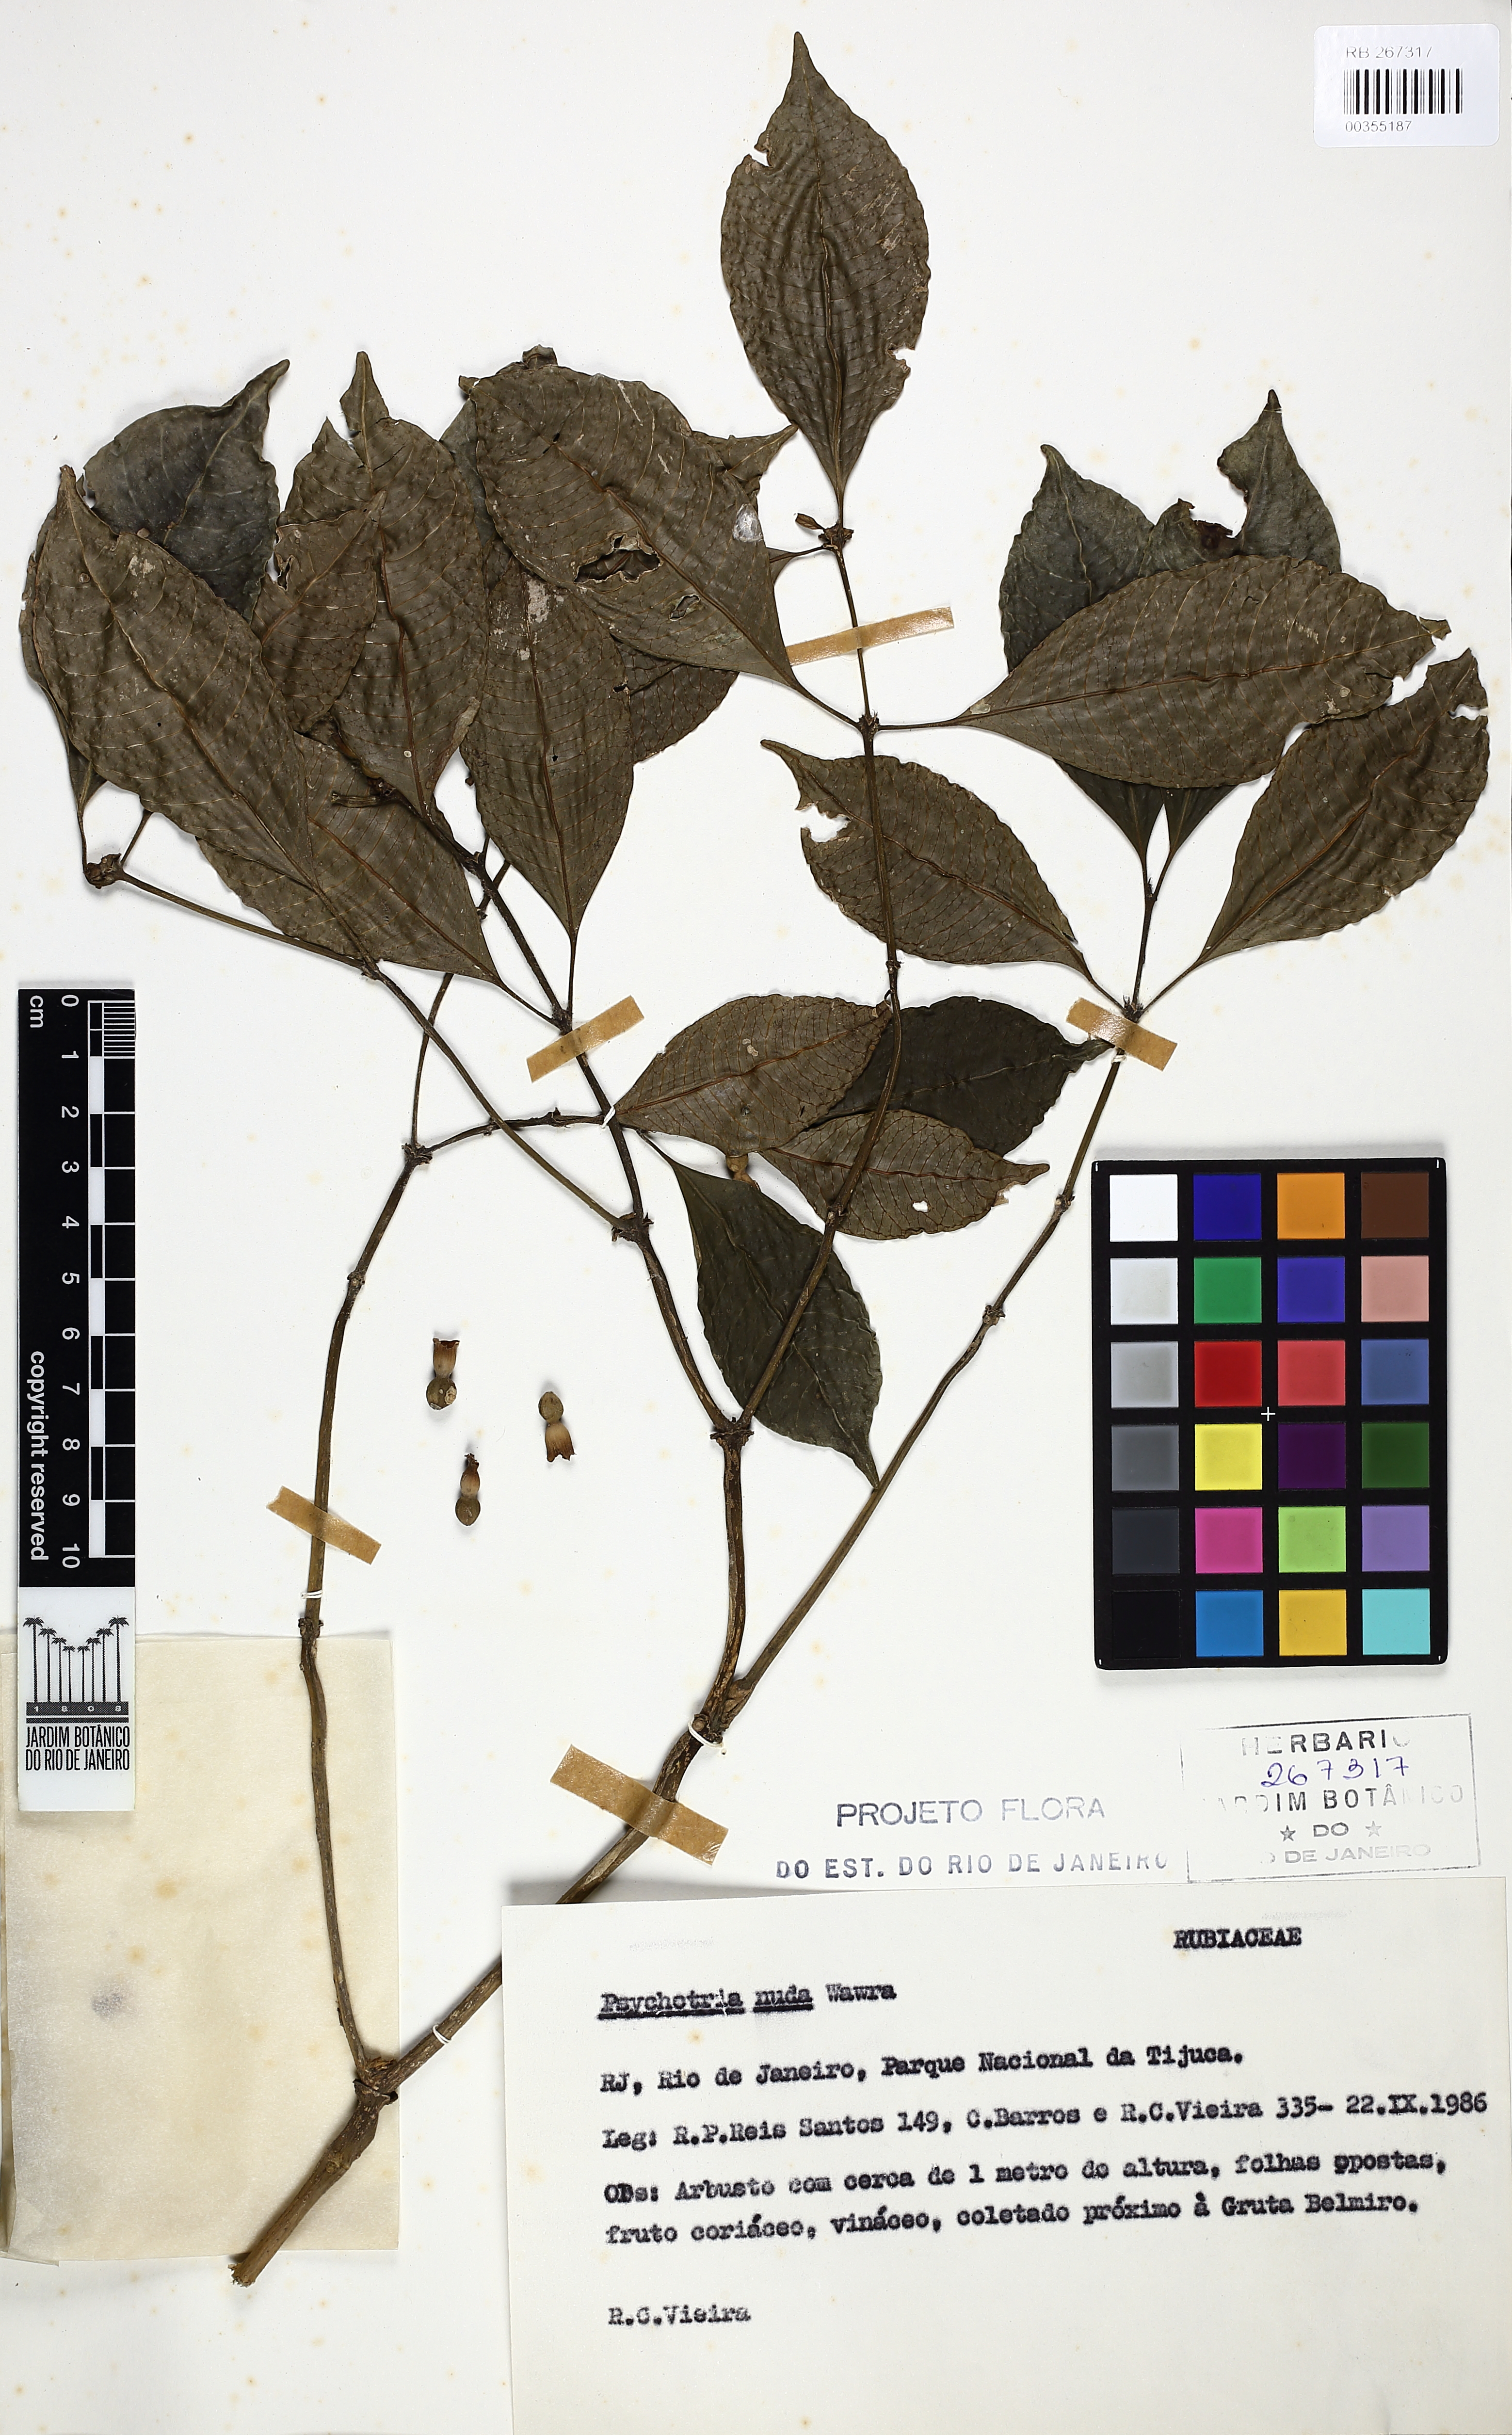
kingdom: Plantae
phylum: Tracheophyta
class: Magnoliopsida
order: Gentianales
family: Rubiaceae
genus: Psychotria
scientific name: Psychotria nuda
